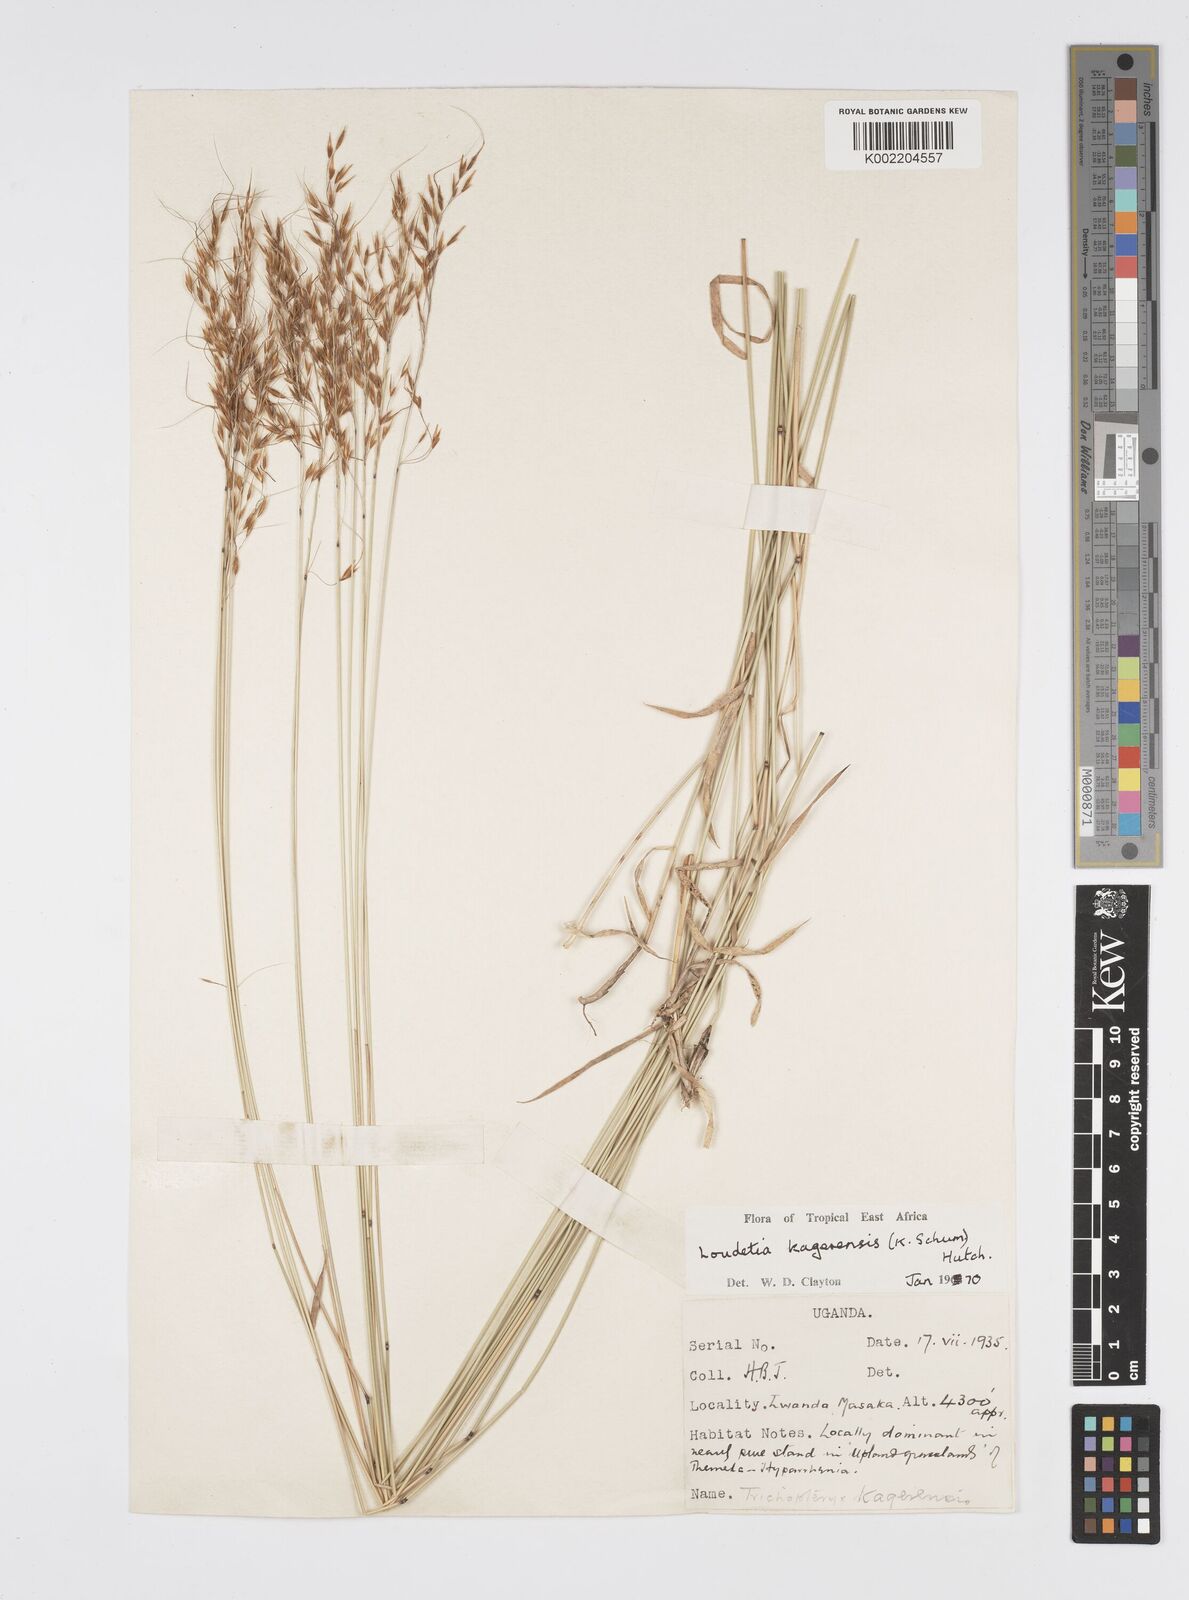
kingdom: Plantae
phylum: Tracheophyta
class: Liliopsida
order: Poales
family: Poaceae
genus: Loudetia
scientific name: Loudetia kagerensis
